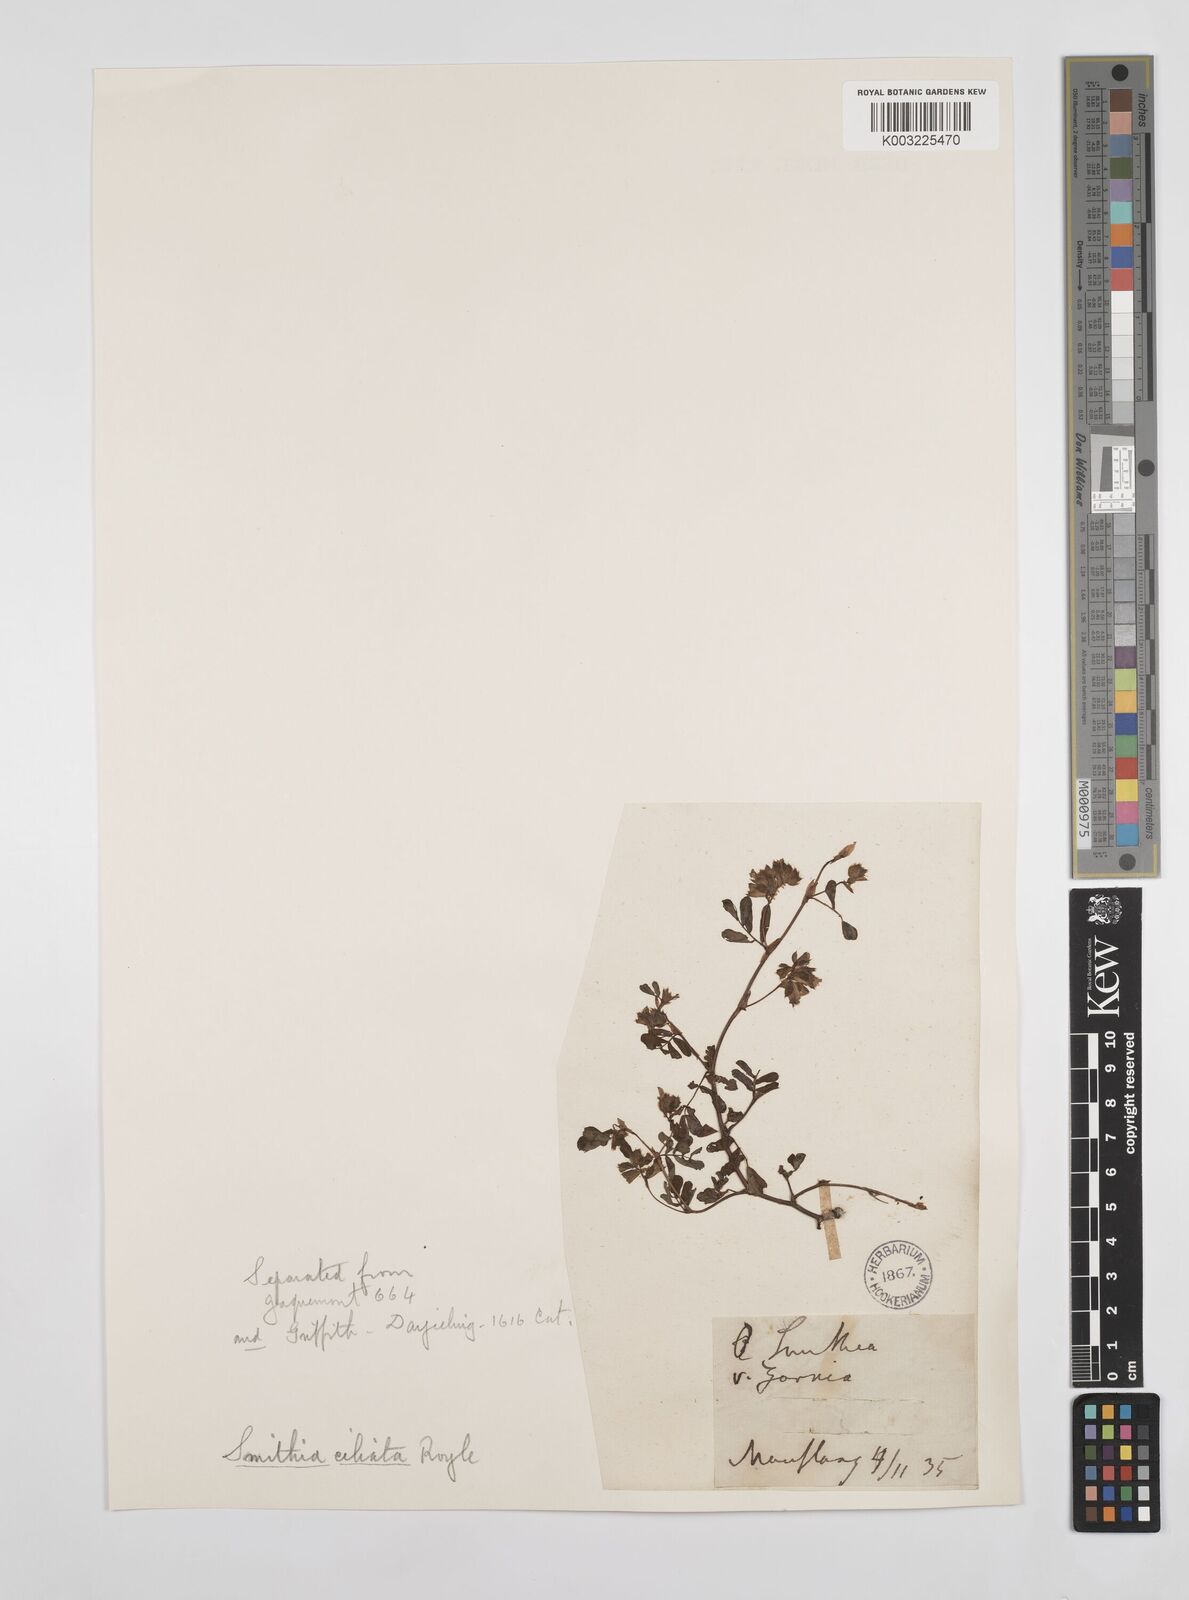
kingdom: Plantae
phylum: Tracheophyta
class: Magnoliopsida
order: Fabales
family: Fabaceae
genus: Smithia
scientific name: Smithia ciliata
